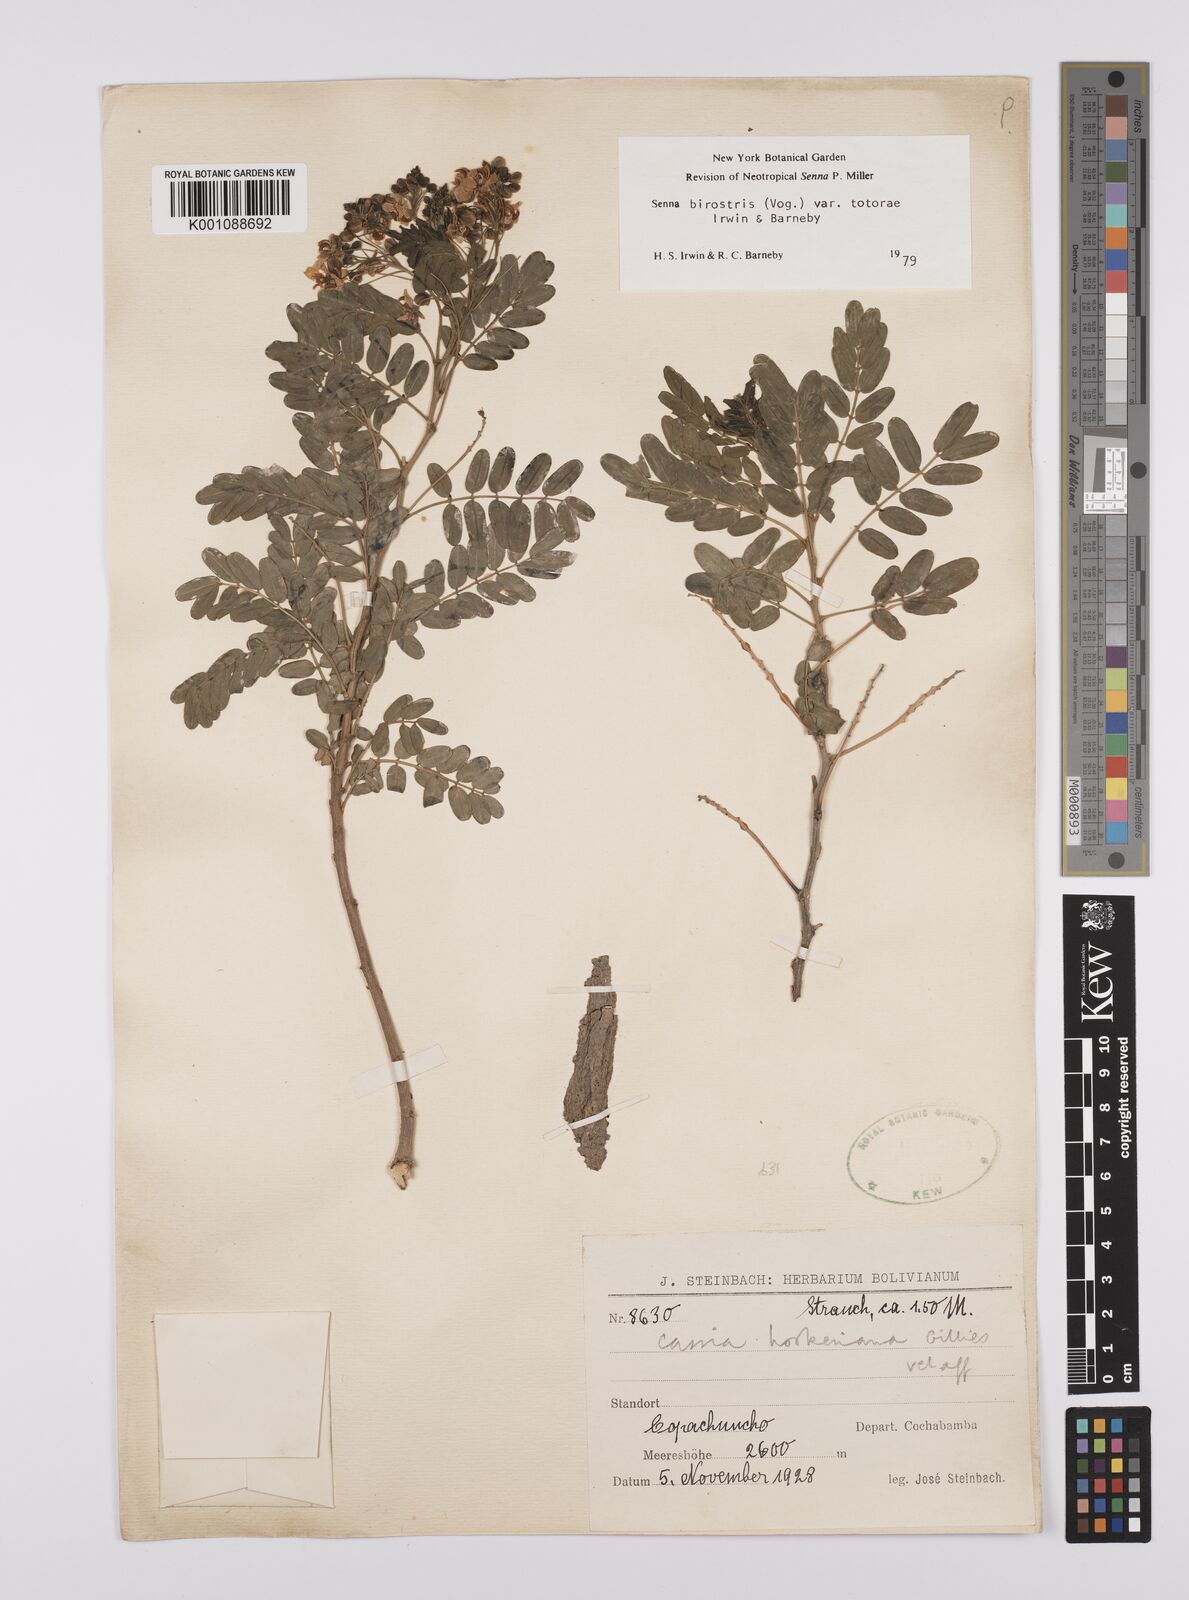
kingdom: Plantae
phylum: Tracheophyta
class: Magnoliopsida
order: Fabales
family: Fabaceae
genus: Senna
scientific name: Senna birostris
